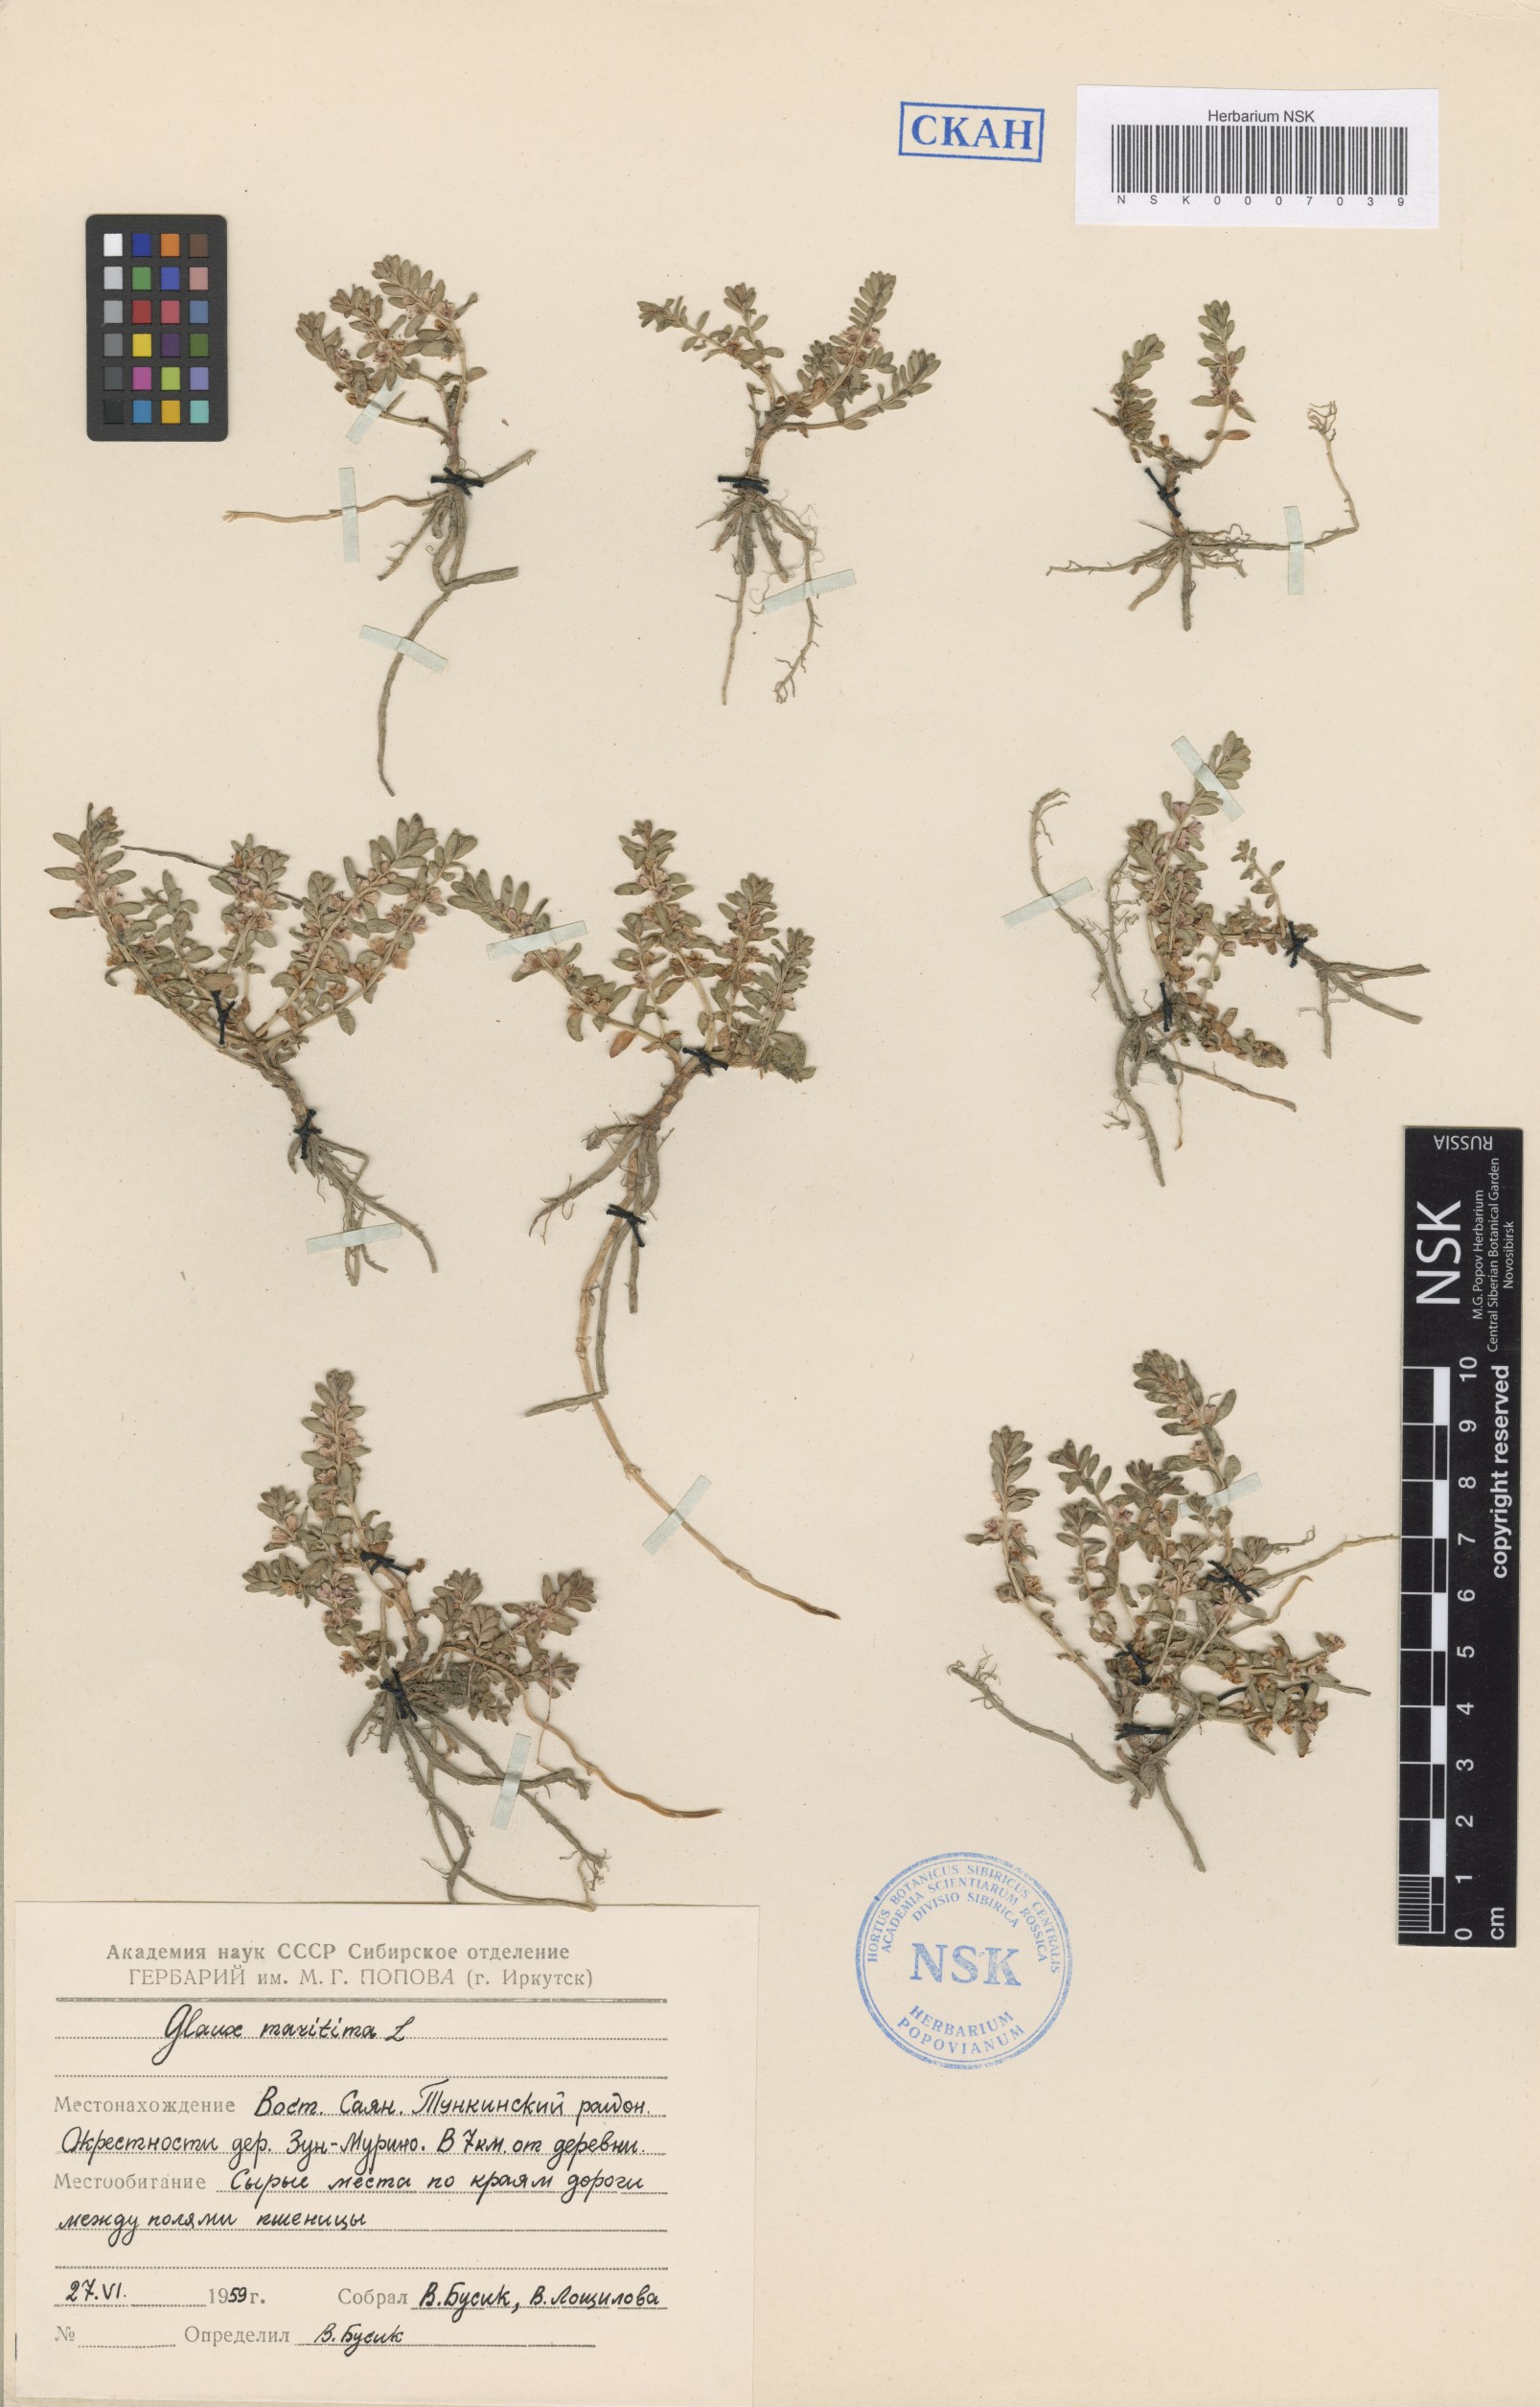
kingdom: Plantae
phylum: Tracheophyta
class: Magnoliopsida
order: Ericales
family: Primulaceae
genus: Lysimachia
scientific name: Lysimachia maritima
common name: Sea milkwort
